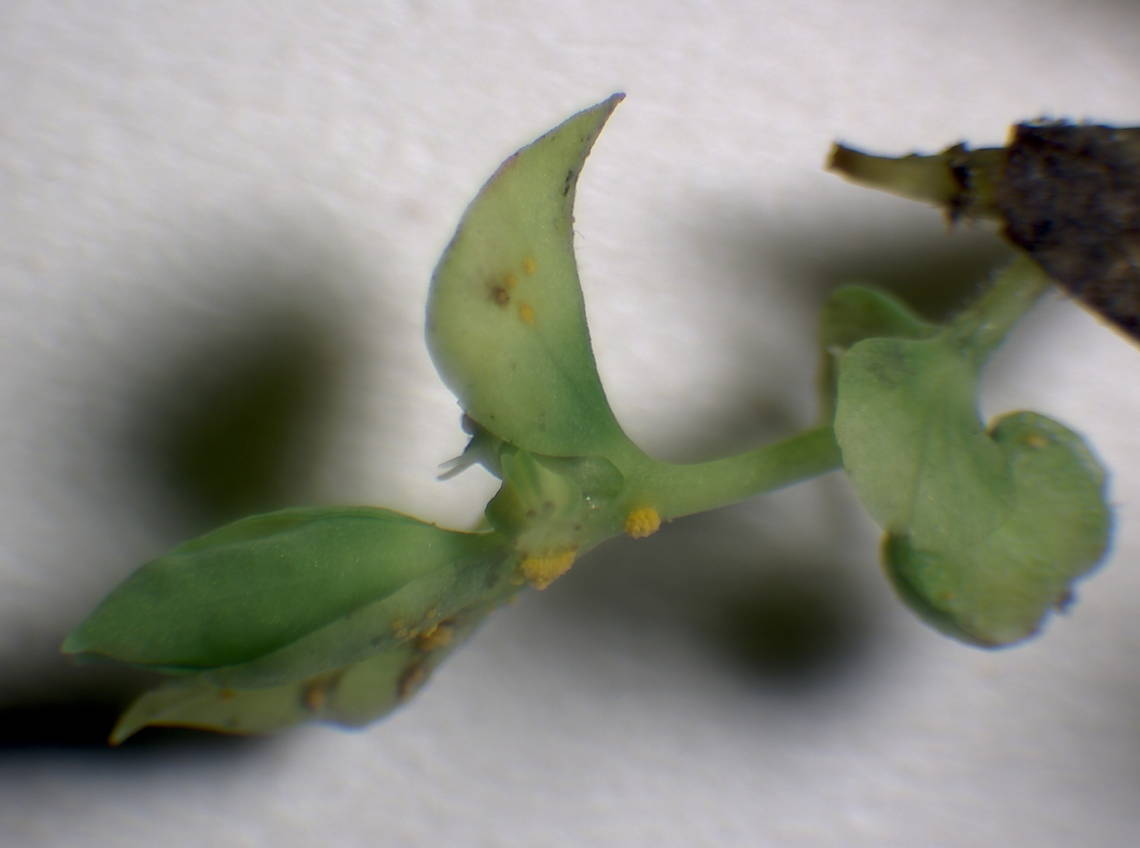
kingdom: Fungi
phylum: Basidiomycota
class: Pucciniomycetes
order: Pucciniales
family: Melampsoraceae
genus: Melampsora
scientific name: Melampsora euphorbiae
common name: vortemælk-skorperust
